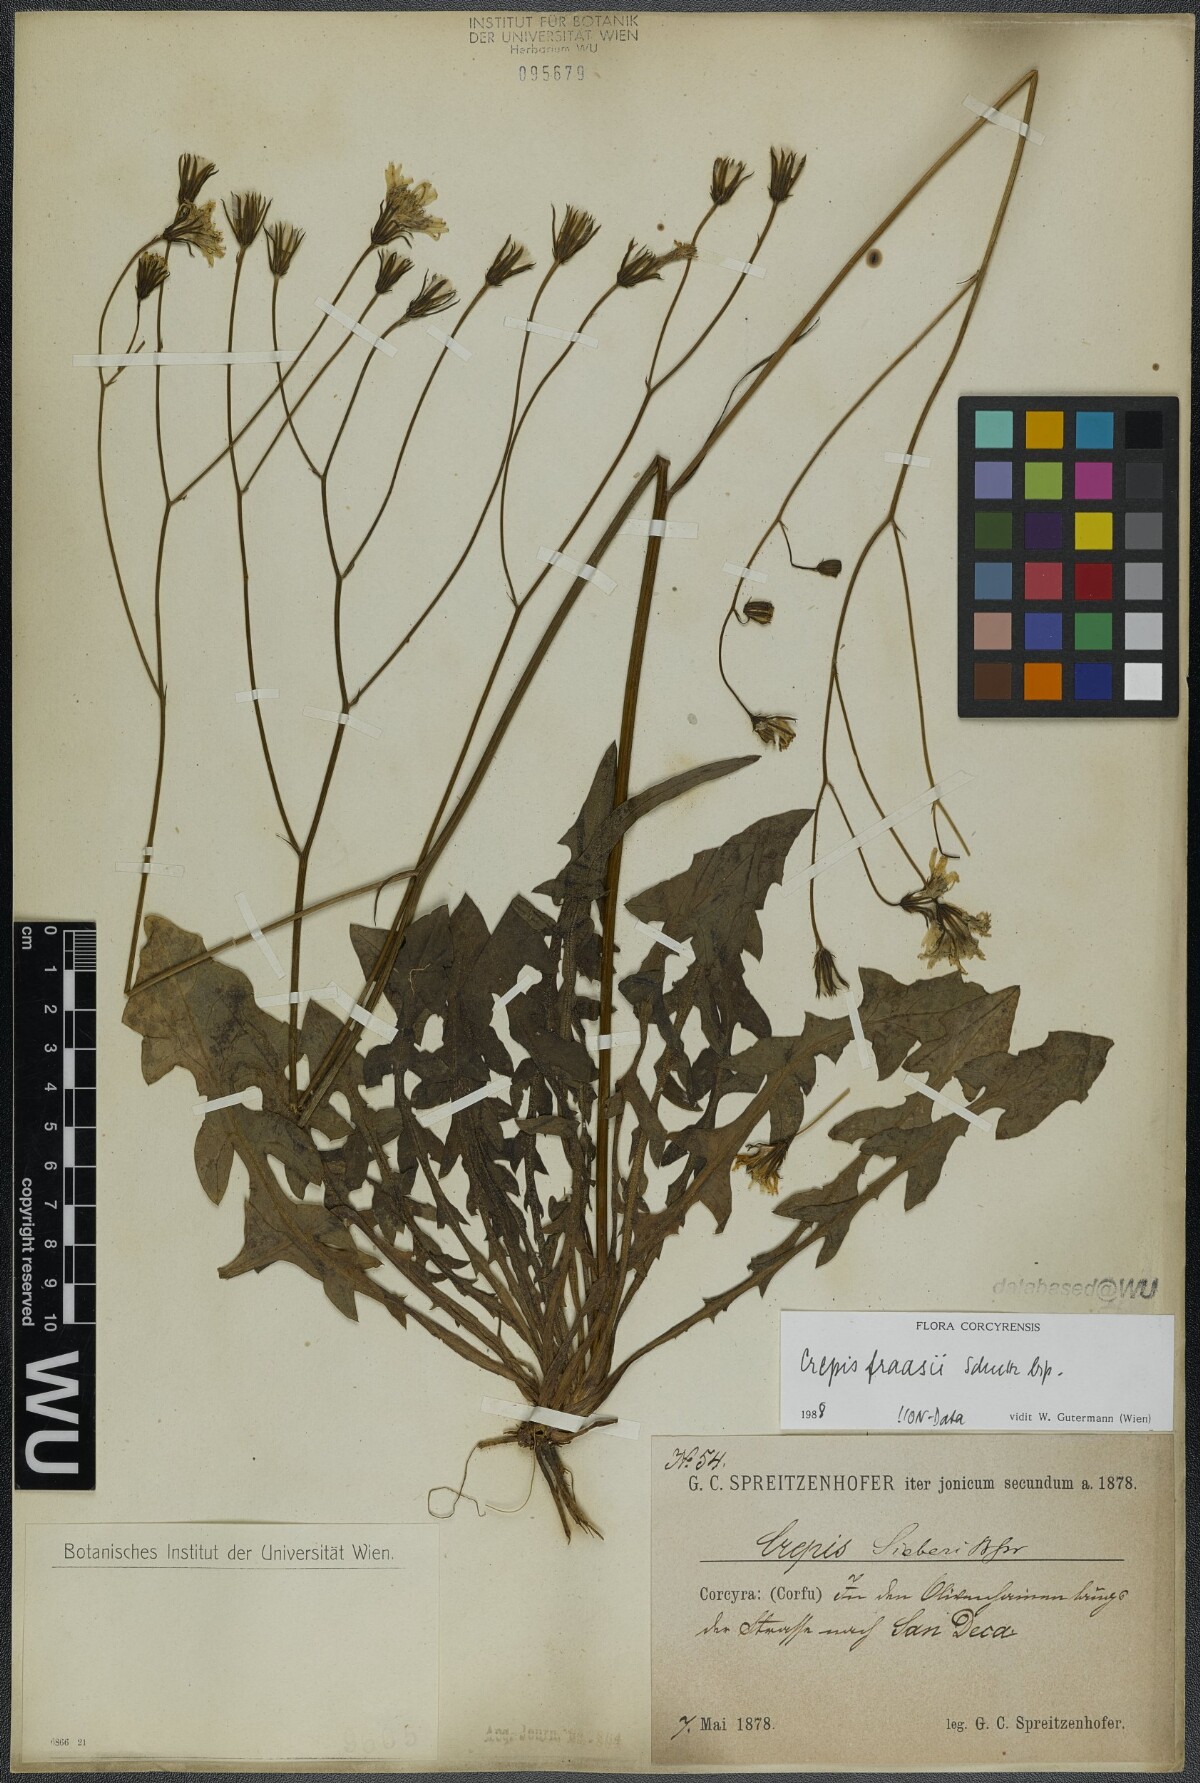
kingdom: Plantae
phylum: Tracheophyta
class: Magnoliopsida
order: Asterales
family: Asteraceae
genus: Crepis
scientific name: Crepis fraasii
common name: Hawk's-beard
